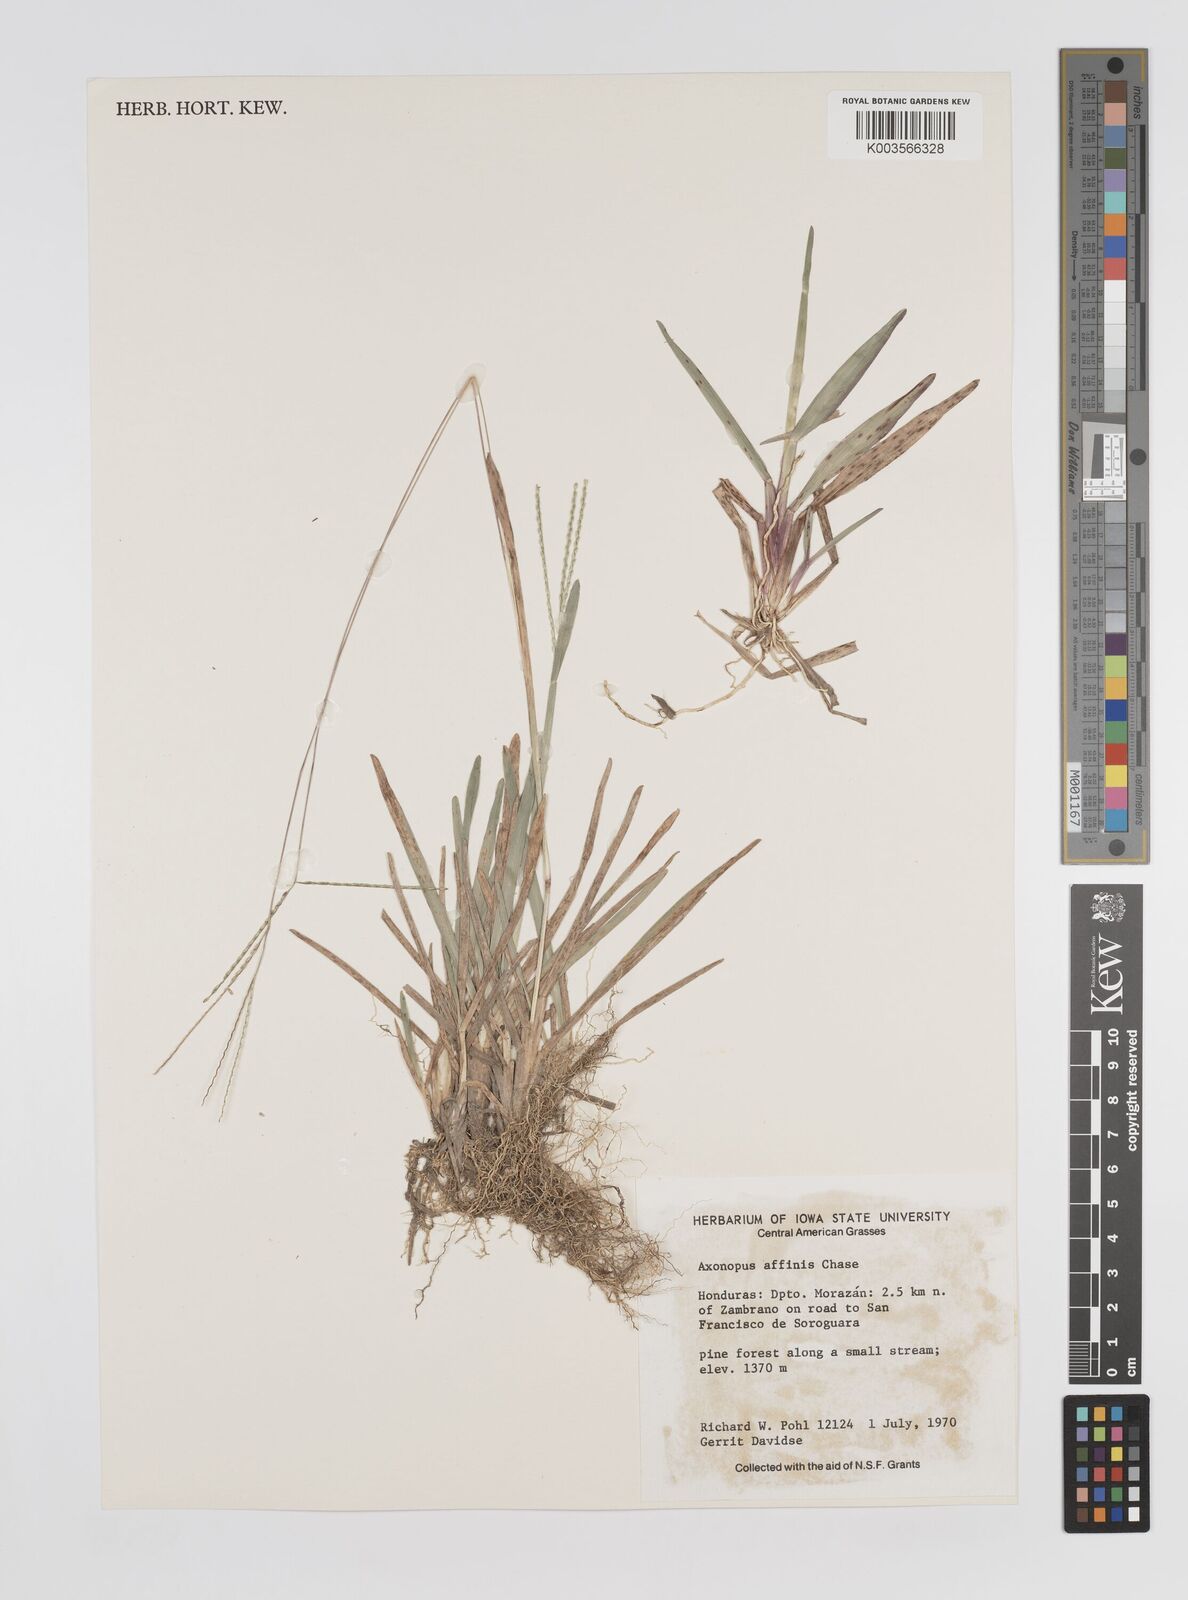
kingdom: Plantae
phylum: Tracheophyta
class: Liliopsida
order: Poales
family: Poaceae
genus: Axonopus
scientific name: Axonopus fissifolius
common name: Common carpetgrass
